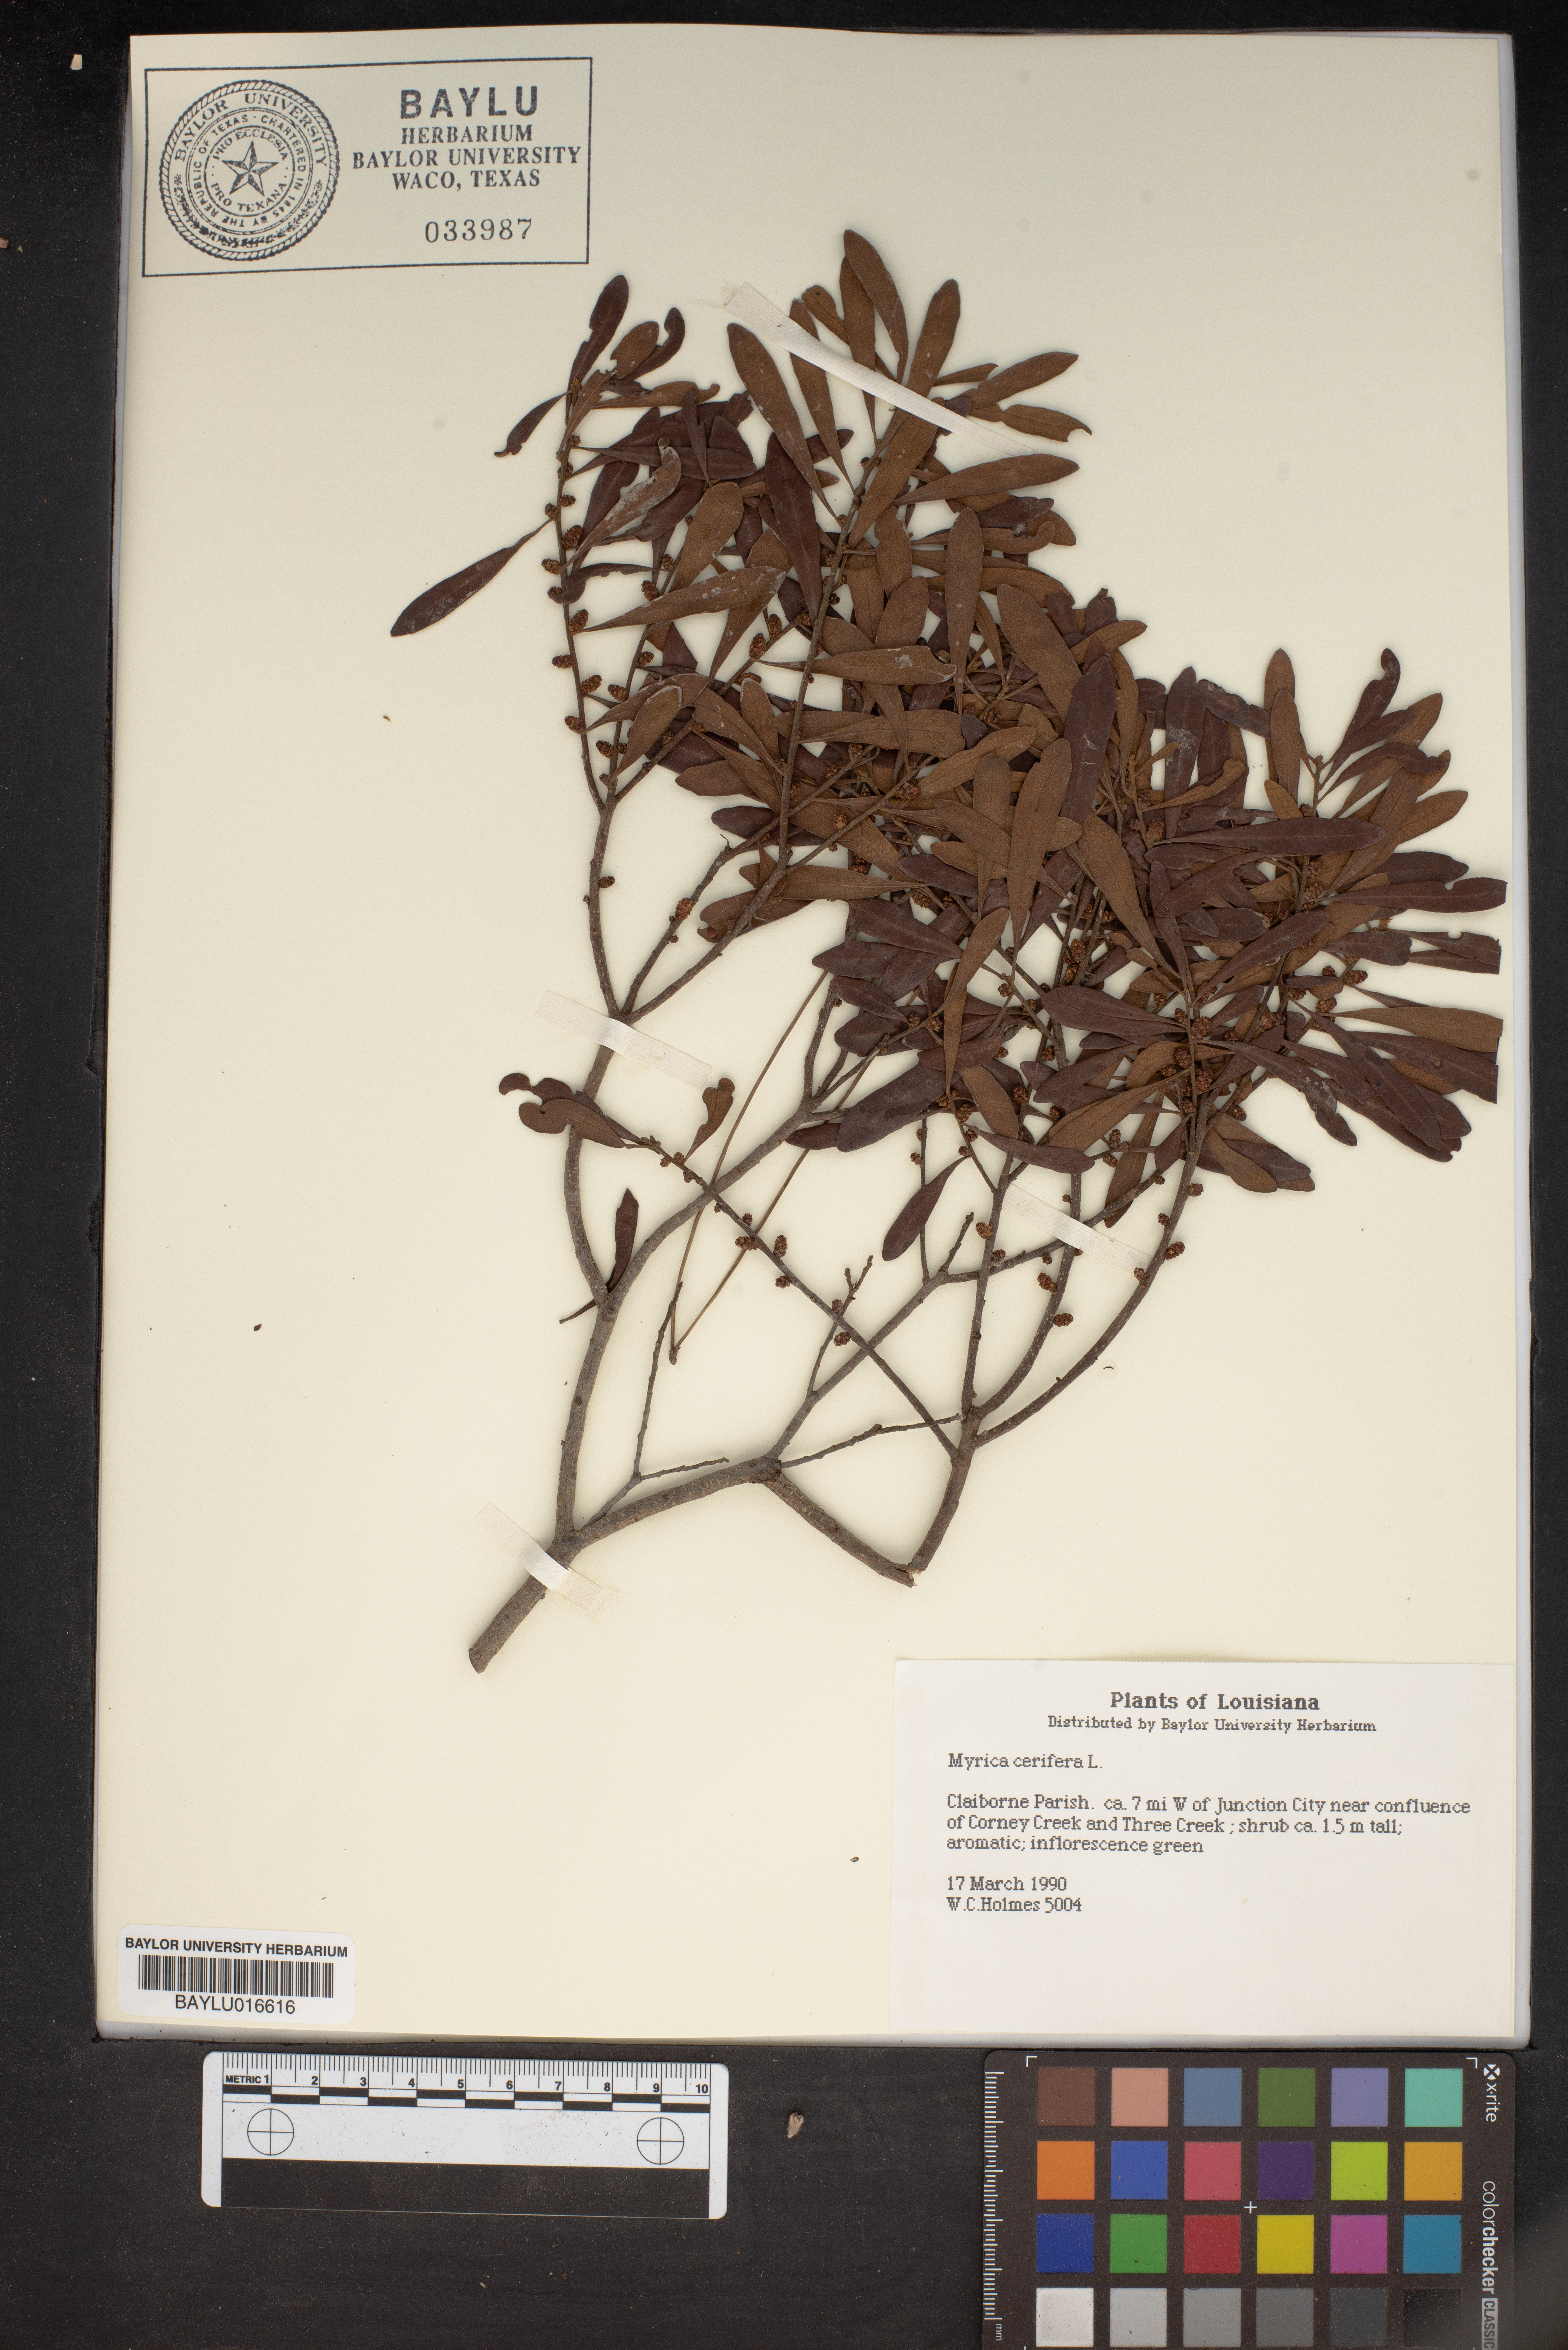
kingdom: Plantae
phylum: Tracheophyta
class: Magnoliopsida
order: Fagales
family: Myricaceae
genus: Morella
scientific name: Morella cerifera
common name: Wax myrtle
